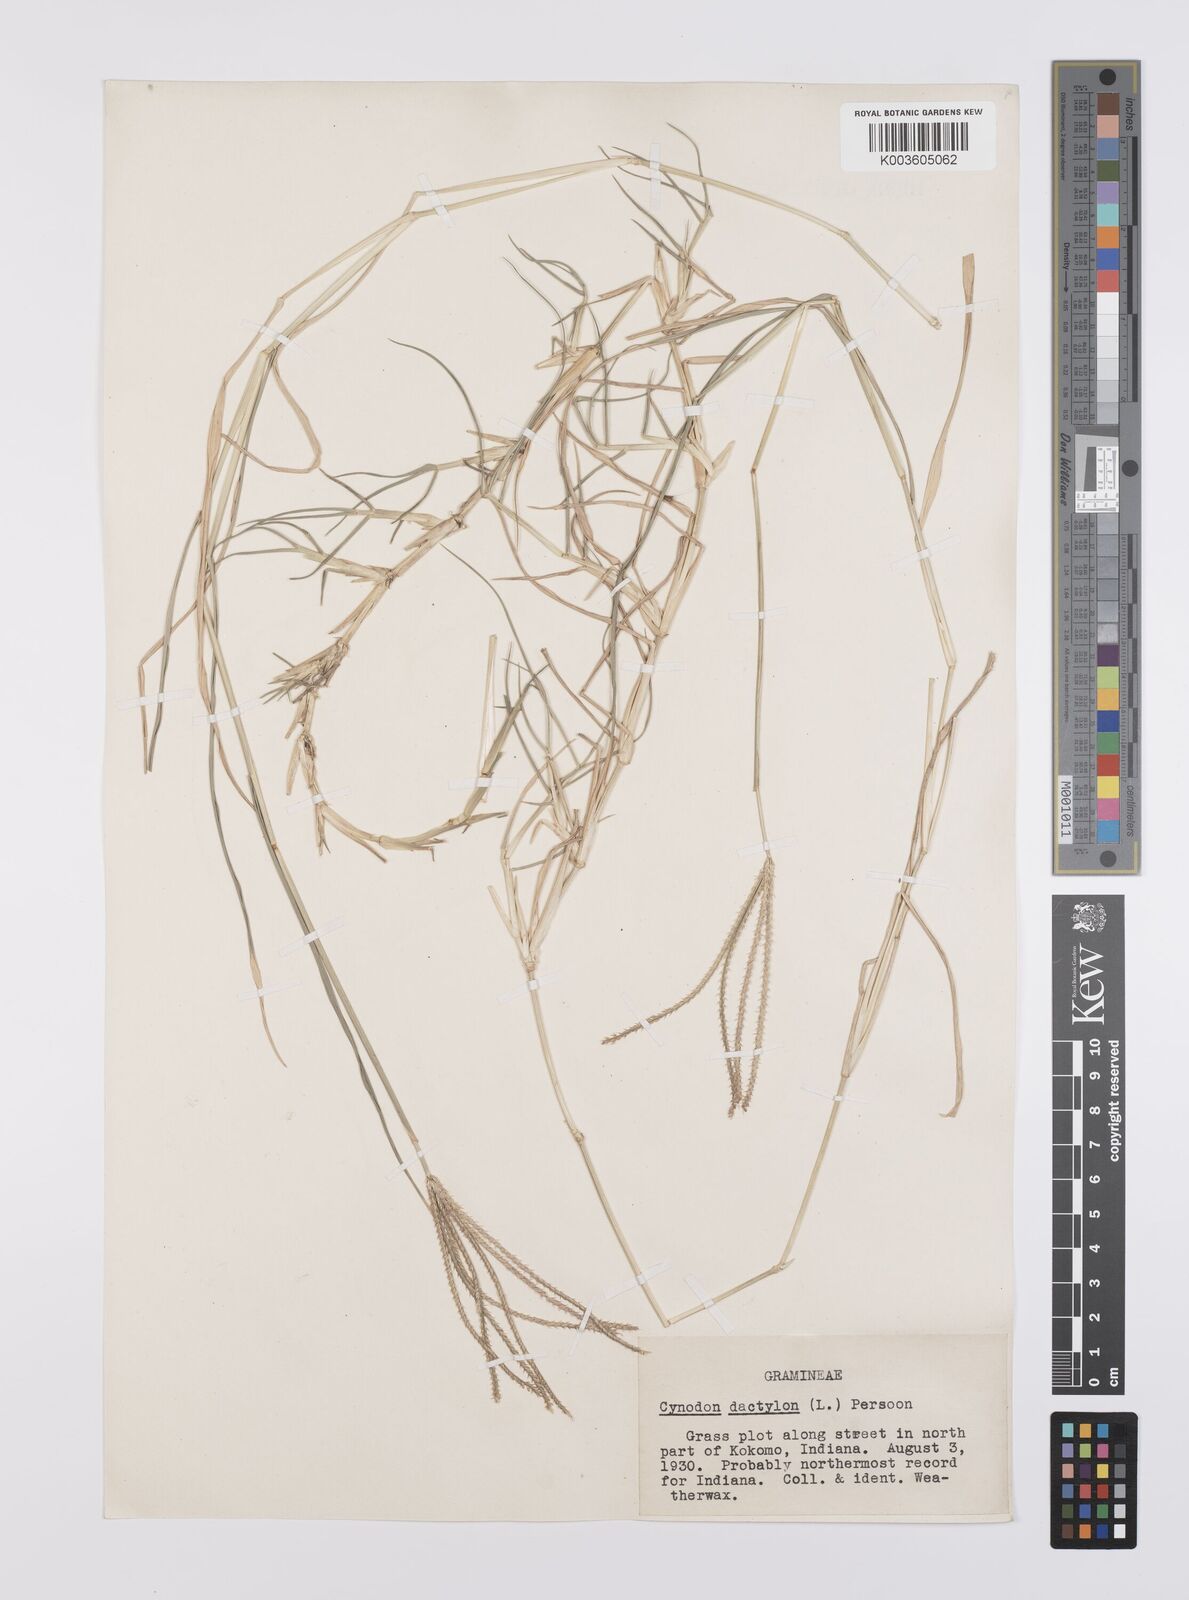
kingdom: Plantae
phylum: Tracheophyta
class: Liliopsida
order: Poales
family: Poaceae
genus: Cynodon
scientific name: Cynodon dactylon
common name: Bermuda grass
